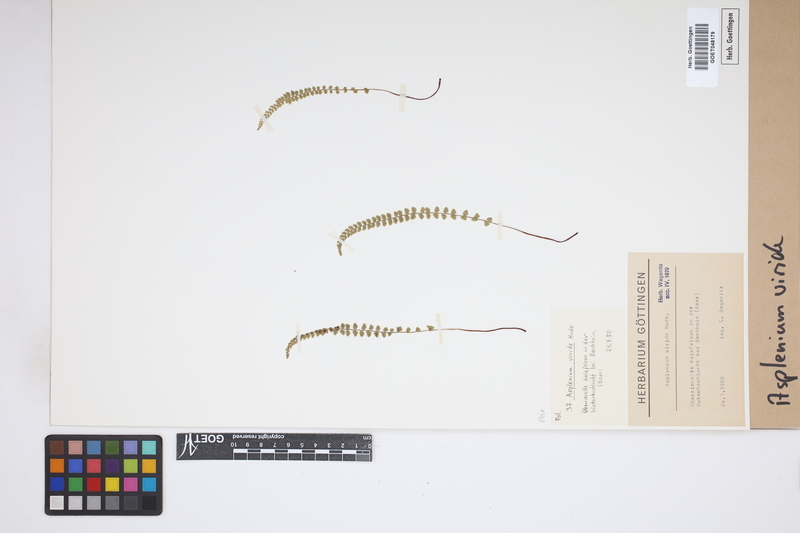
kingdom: Plantae
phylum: Tracheophyta
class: Polypodiopsida
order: Polypodiales
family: Aspleniaceae
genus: Asplenium
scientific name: Asplenium viride
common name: Green spleenwort
